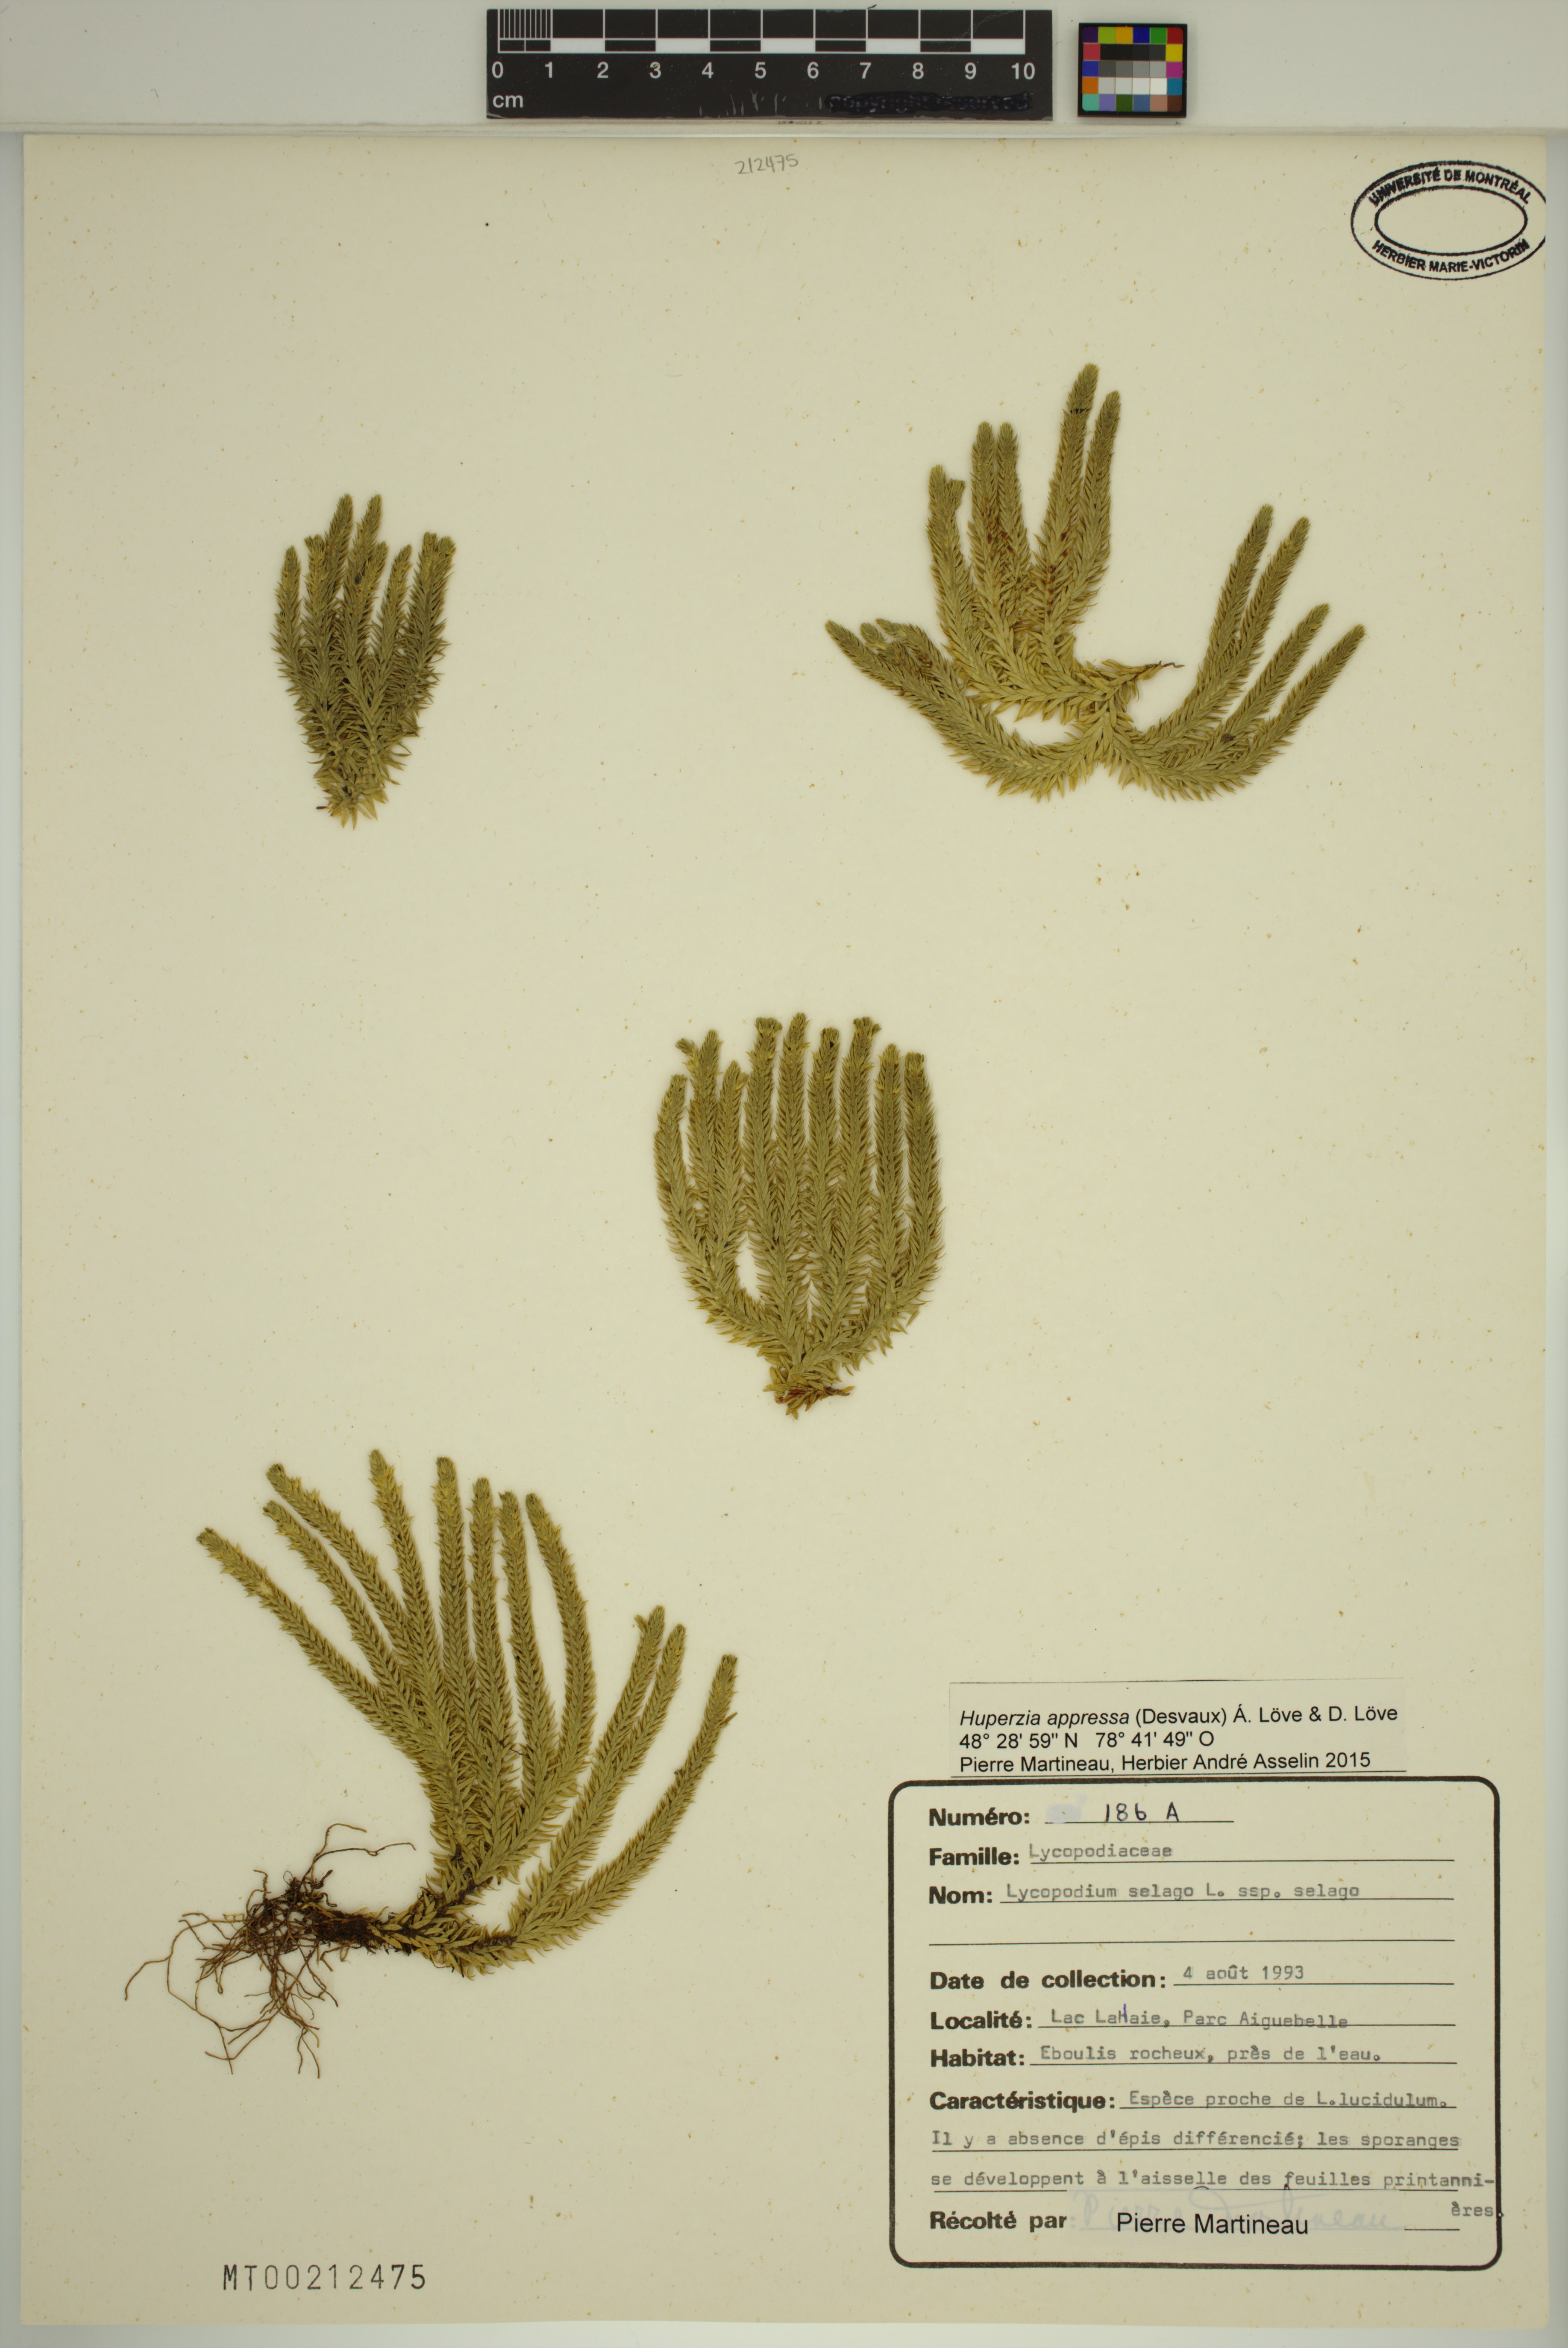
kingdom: Plantae
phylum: Tracheophyta
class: Lycopodiopsida
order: Lycopodiales
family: Lycopodiaceae
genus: Huperzia
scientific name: Huperzia selago
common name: Northern firmoss
